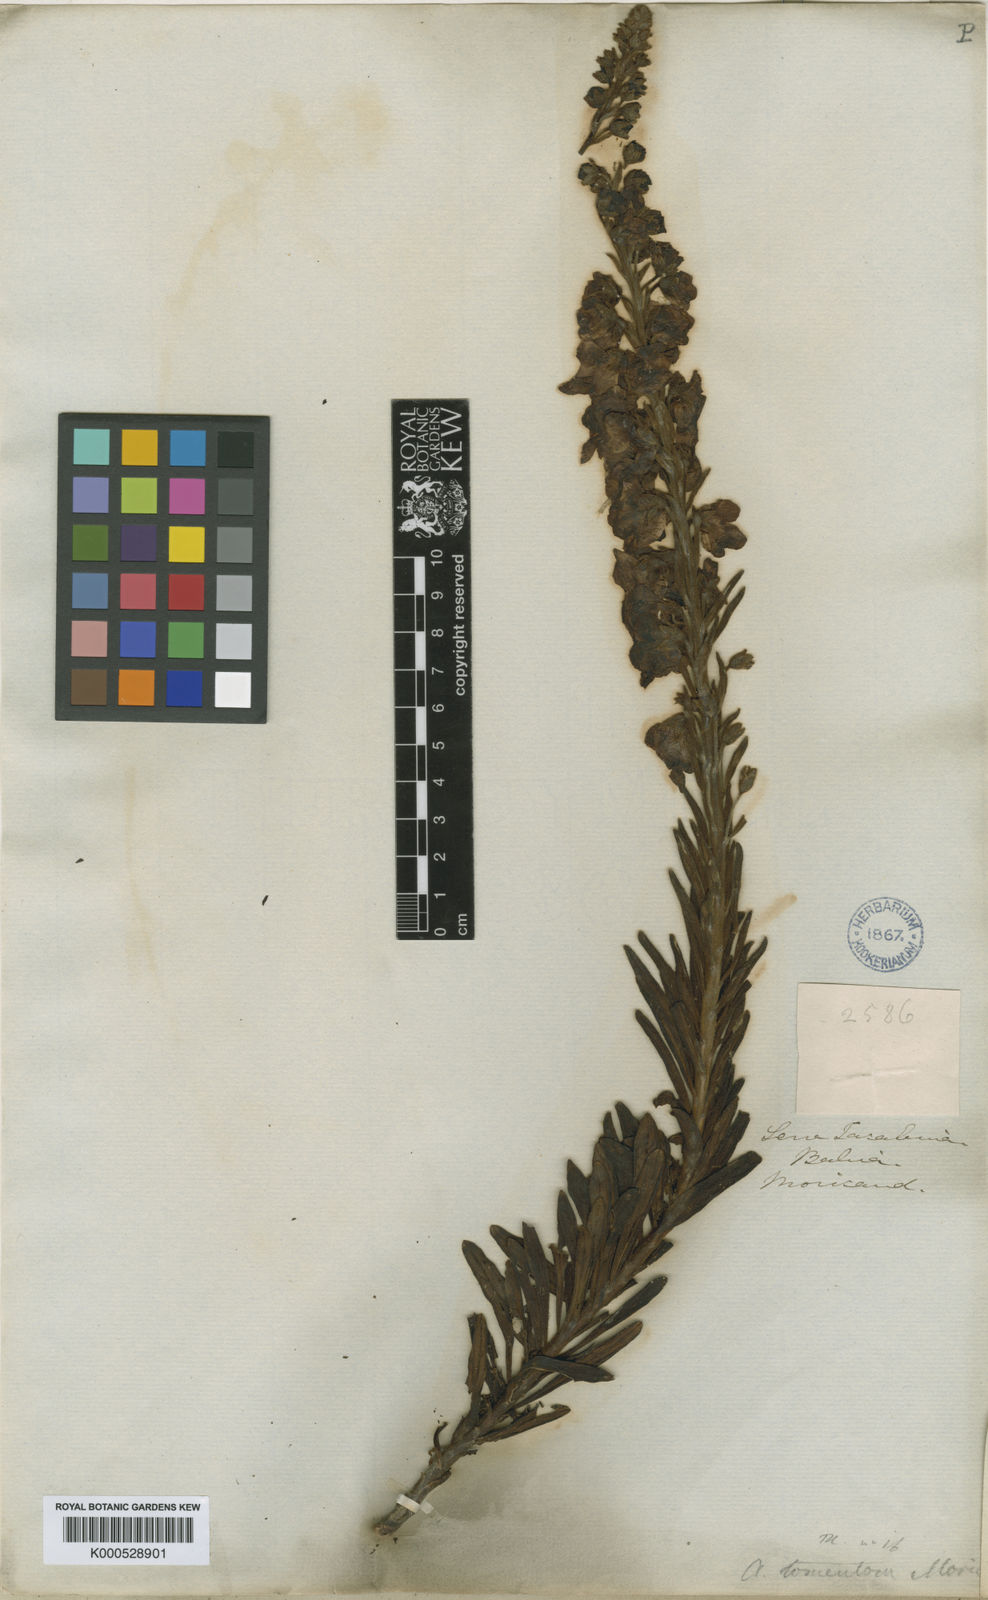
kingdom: Plantae
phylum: Tracheophyta
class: Magnoliopsida
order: Lamiales
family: Plantaginaceae
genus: Angelonia
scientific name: Angelonia tomentosa
